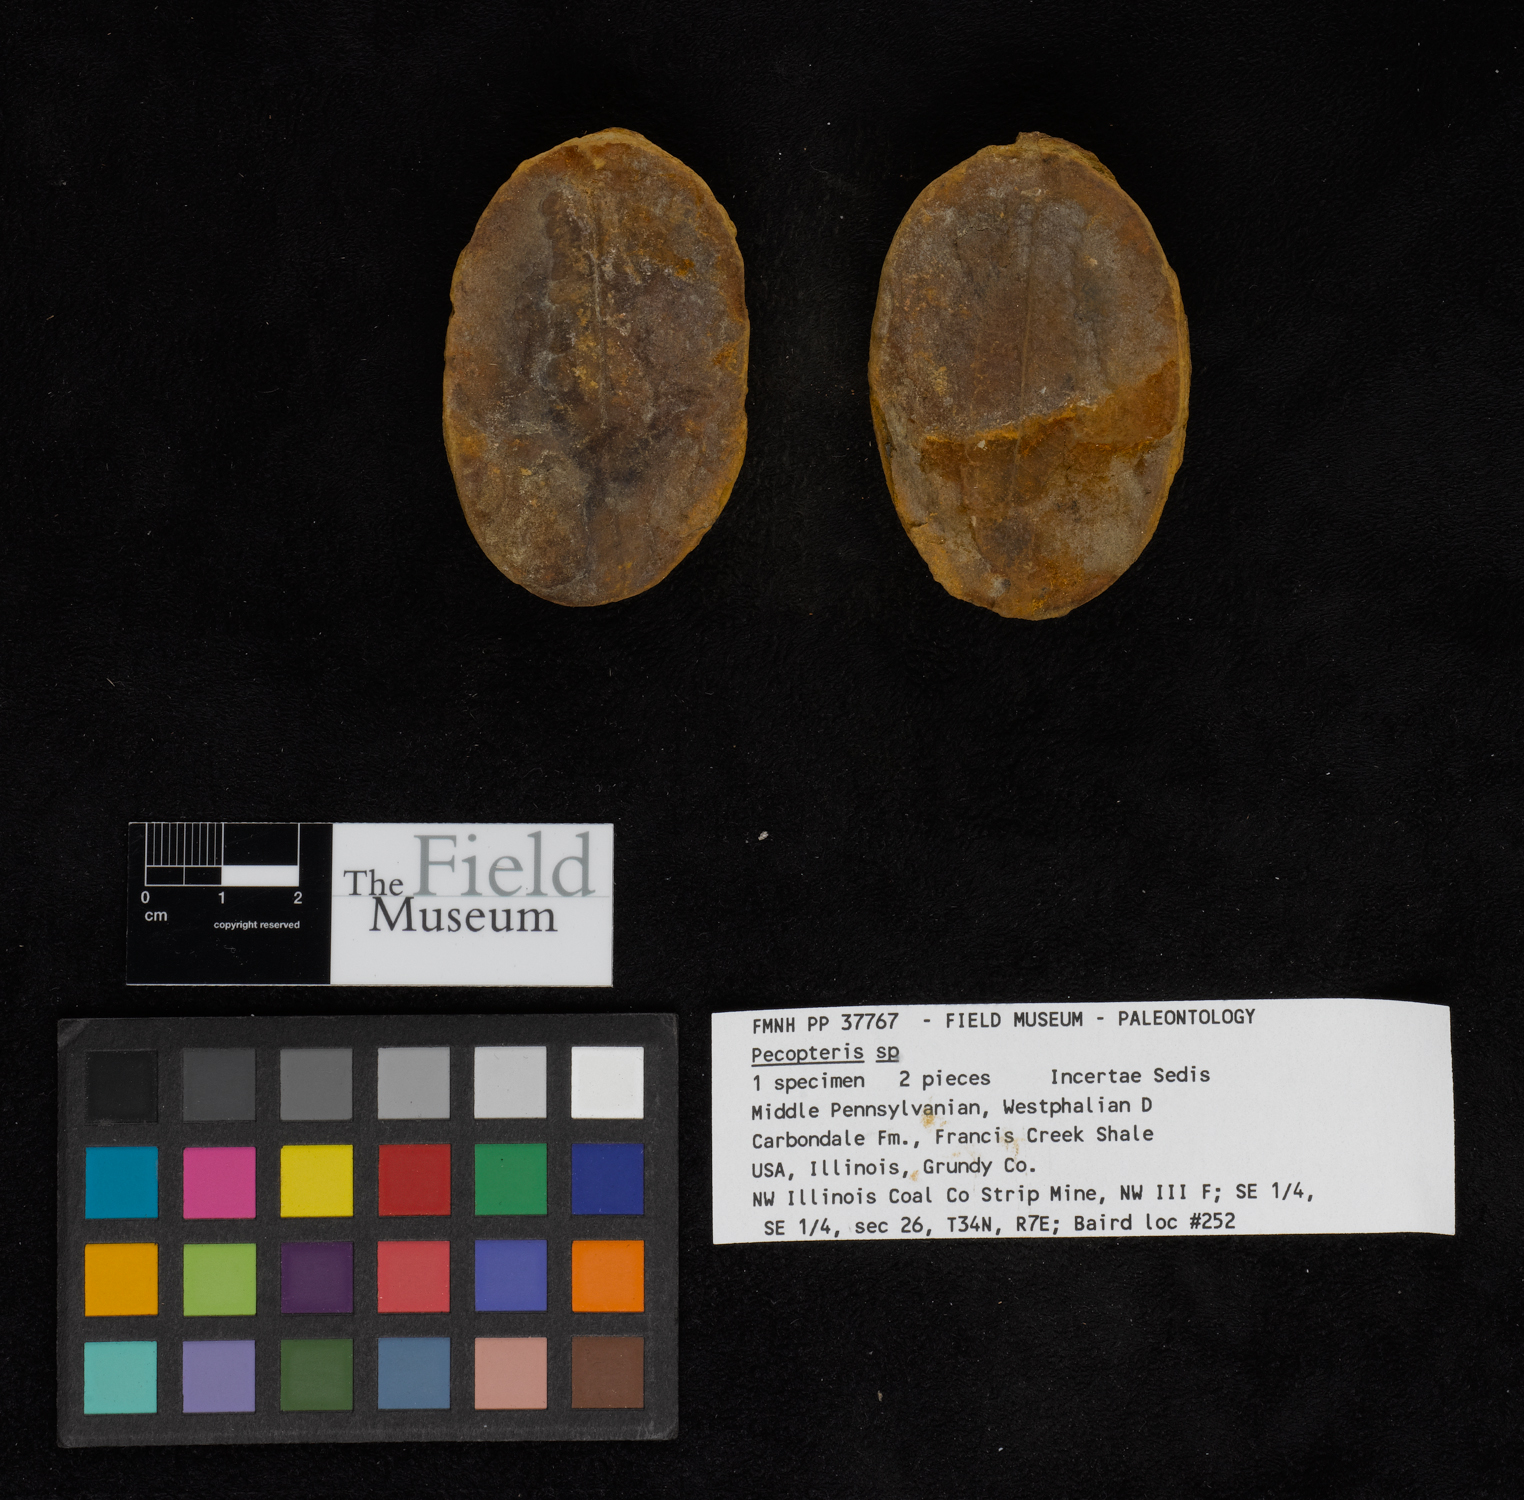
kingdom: Plantae
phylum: Tracheophyta
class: Polypodiopsida
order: Marattiales
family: Asterothecaceae
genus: Pecopteris
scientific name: Pecopteris
